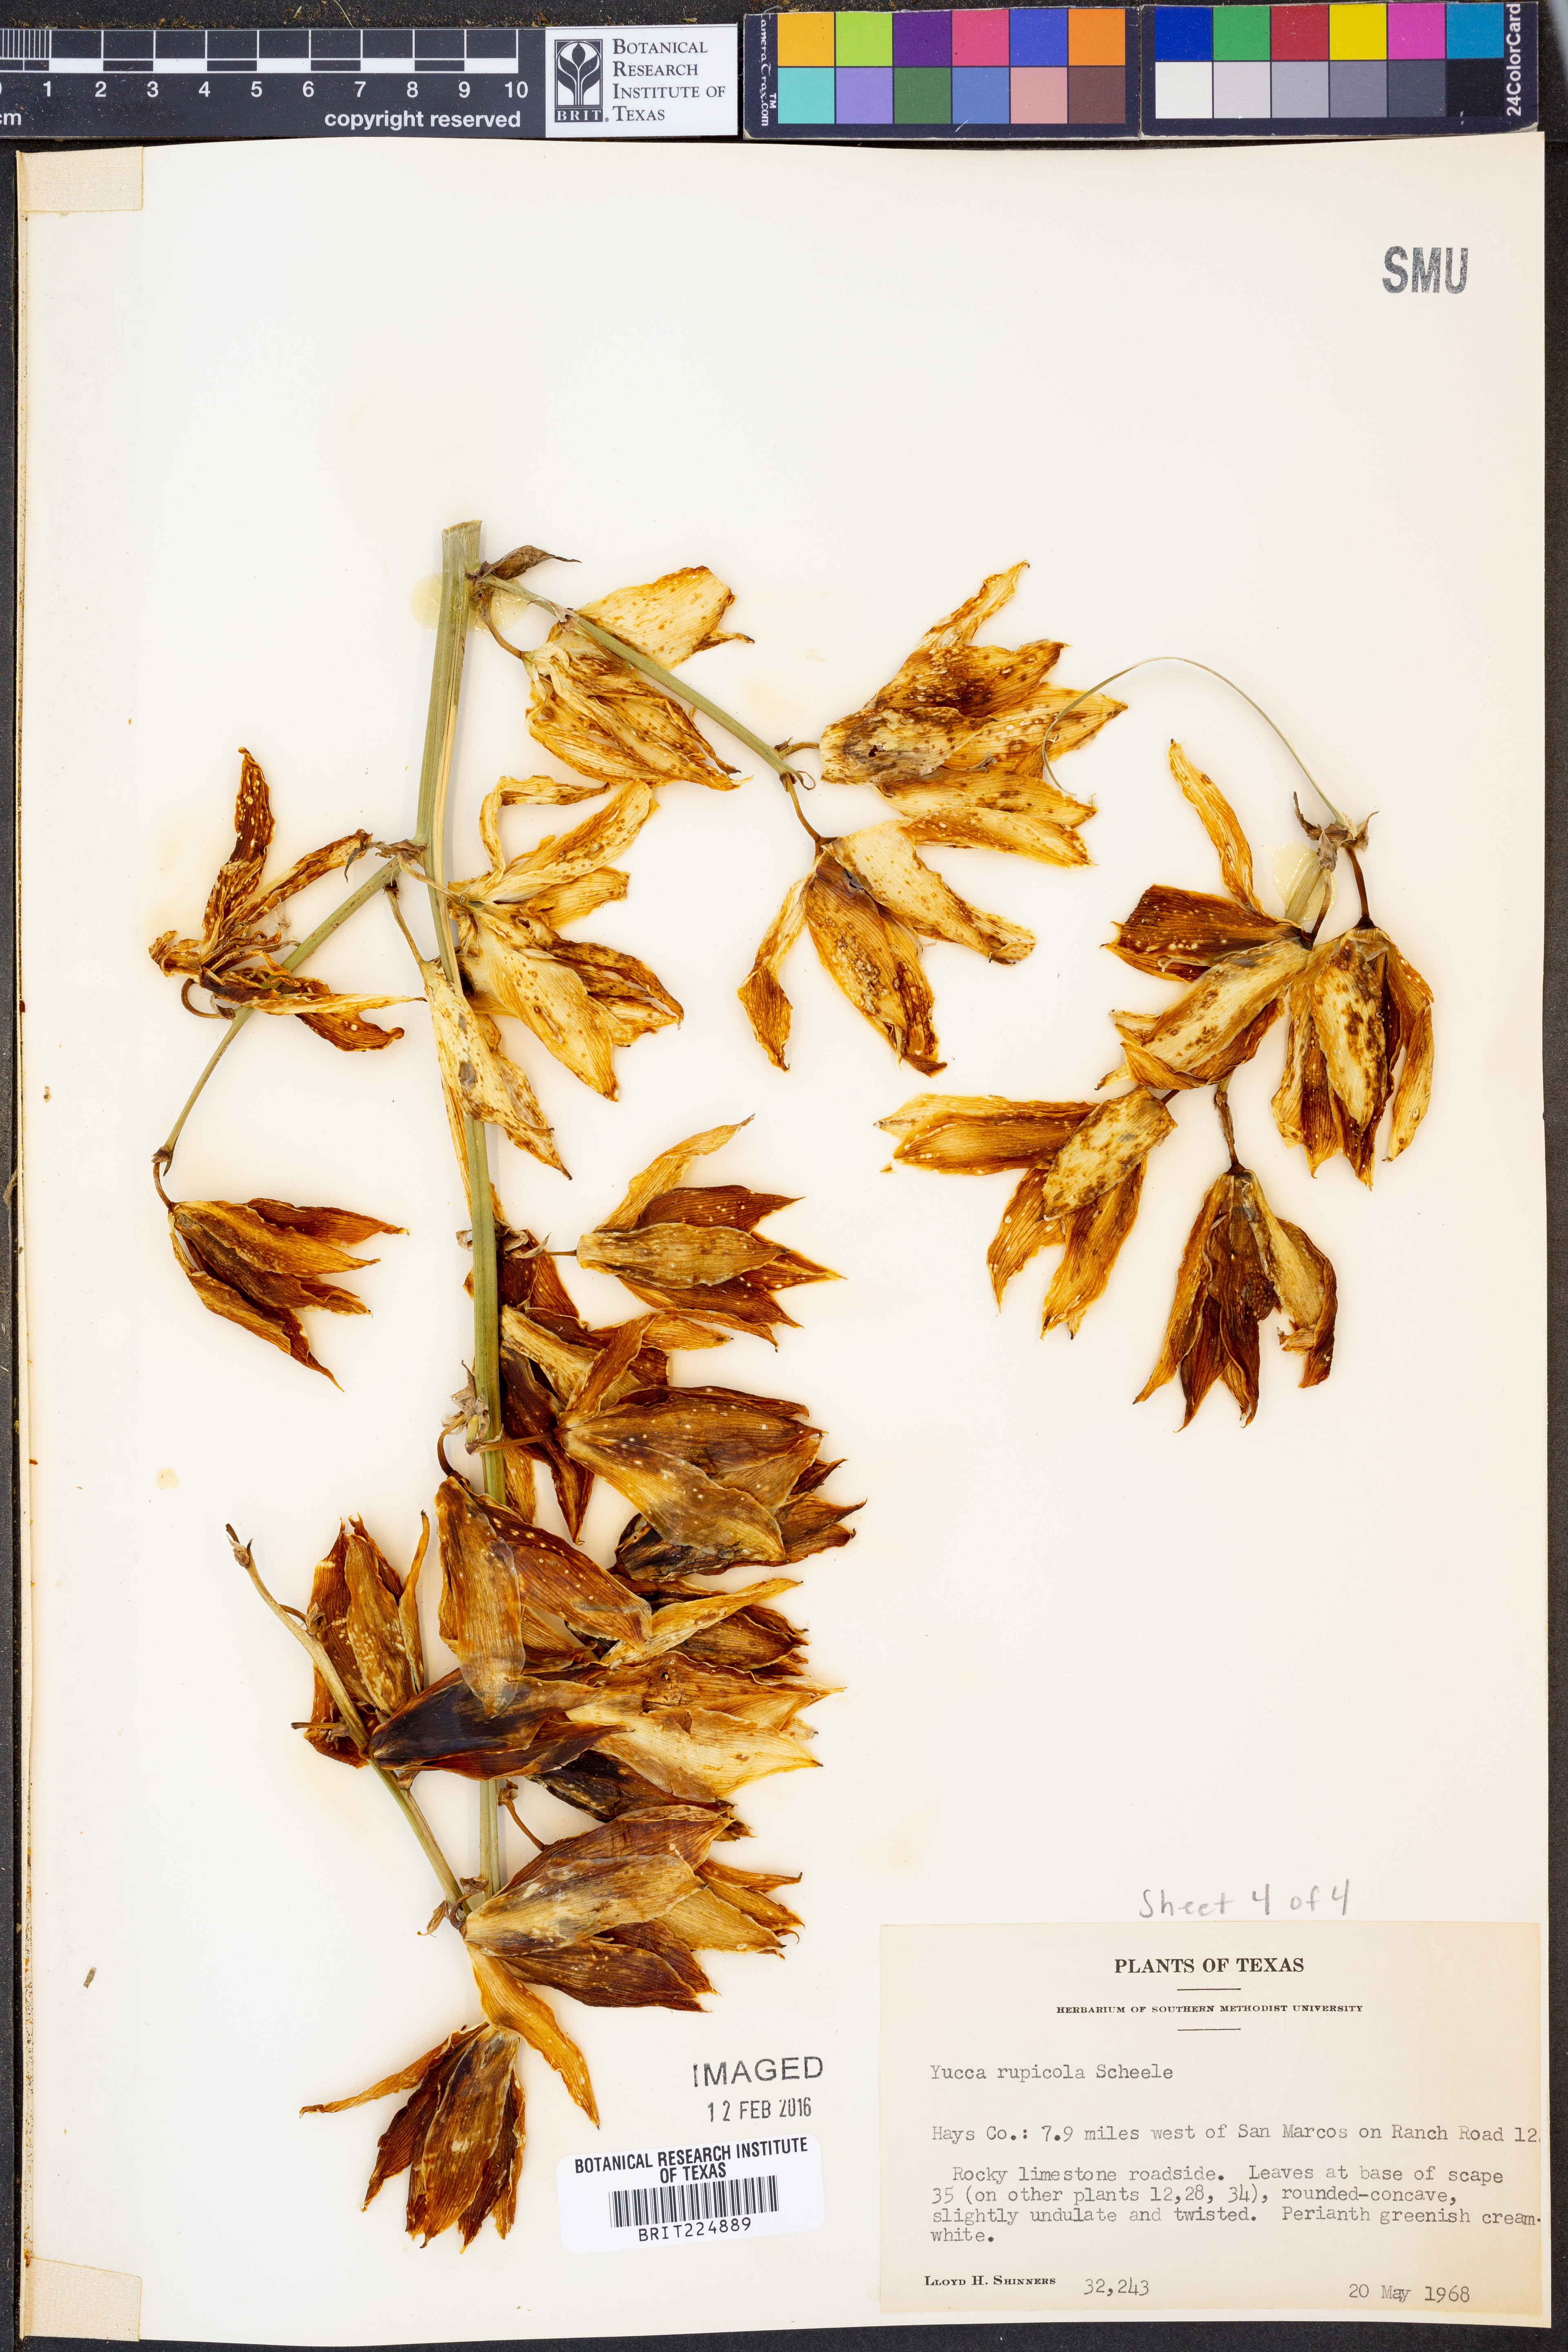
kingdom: Plantae
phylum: Tracheophyta
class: Liliopsida
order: Asparagales
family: Asparagaceae
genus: Yucca
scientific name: Yucca rupicola
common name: Twisted-leaf spanish-dagger
